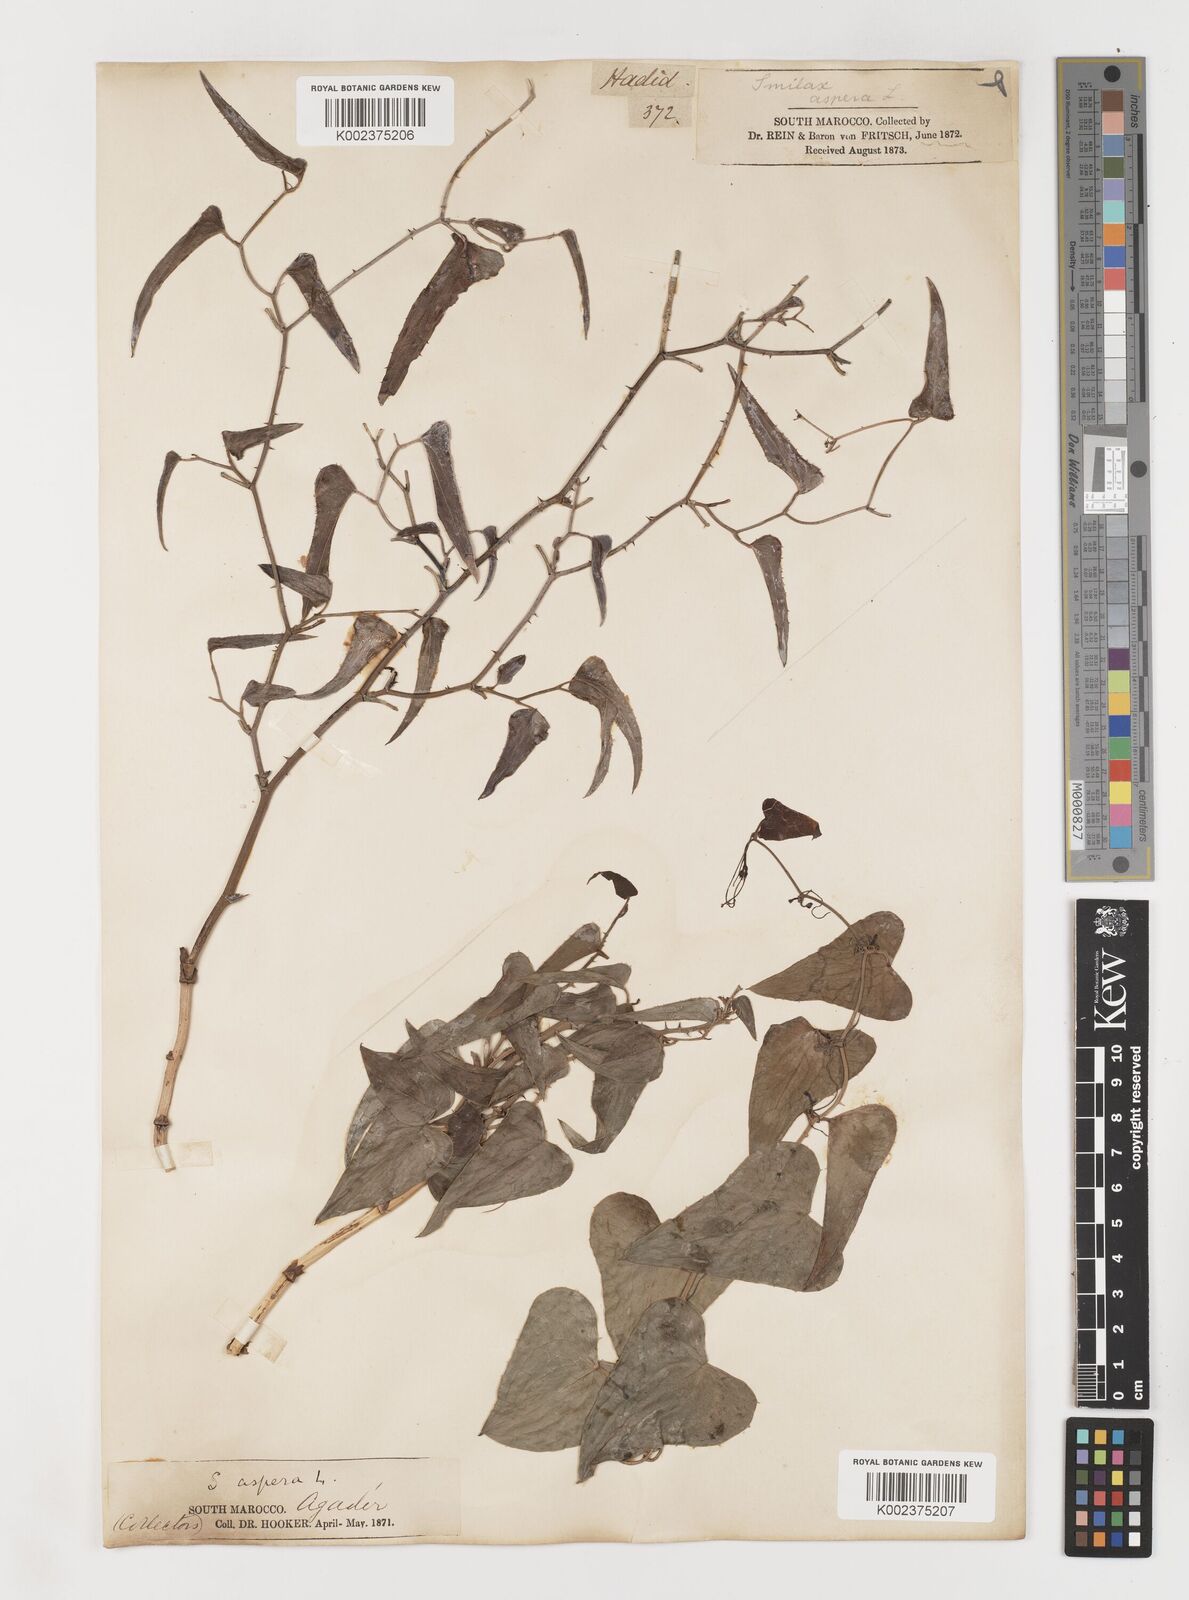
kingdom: Plantae
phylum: Tracheophyta
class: Liliopsida
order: Liliales
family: Smilacaceae
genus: Smilax
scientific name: Smilax aspera
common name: Common smilax
